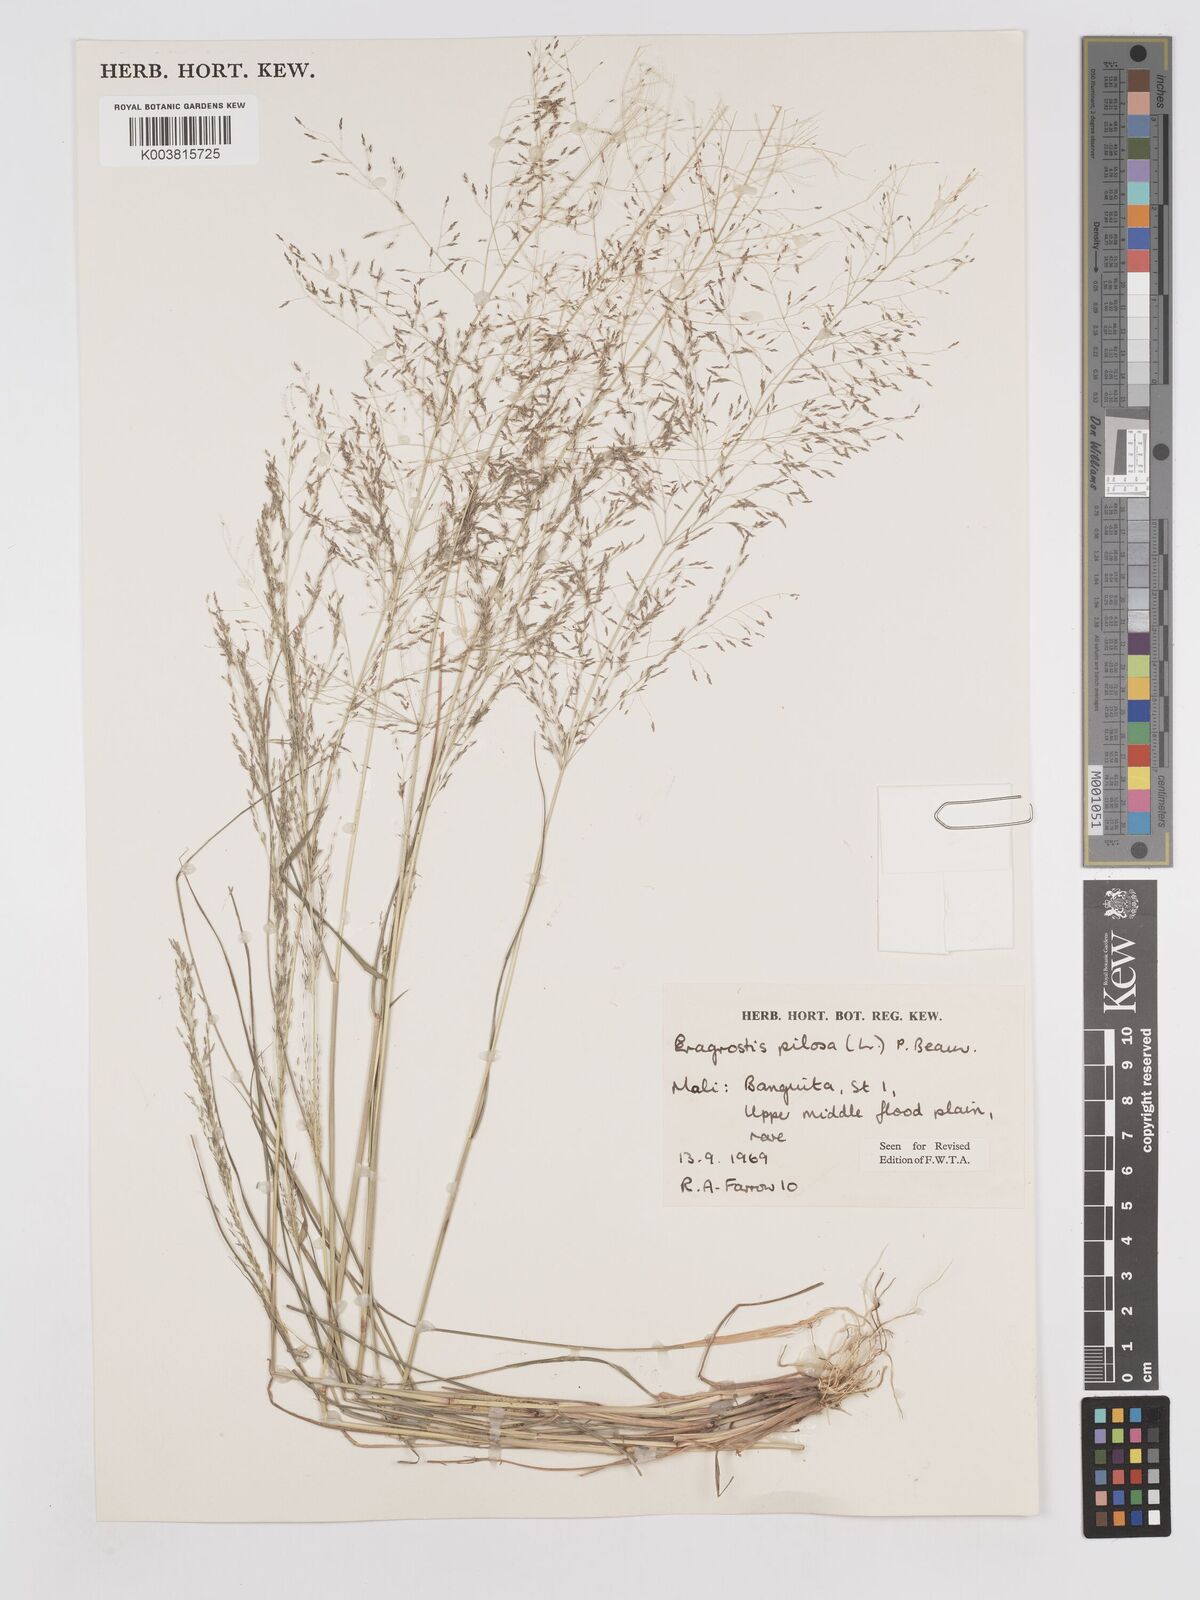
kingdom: Plantae
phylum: Tracheophyta
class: Liliopsida
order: Poales
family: Poaceae
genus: Eragrostis
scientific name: Eragrostis pilosa
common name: Indian lovegrass
